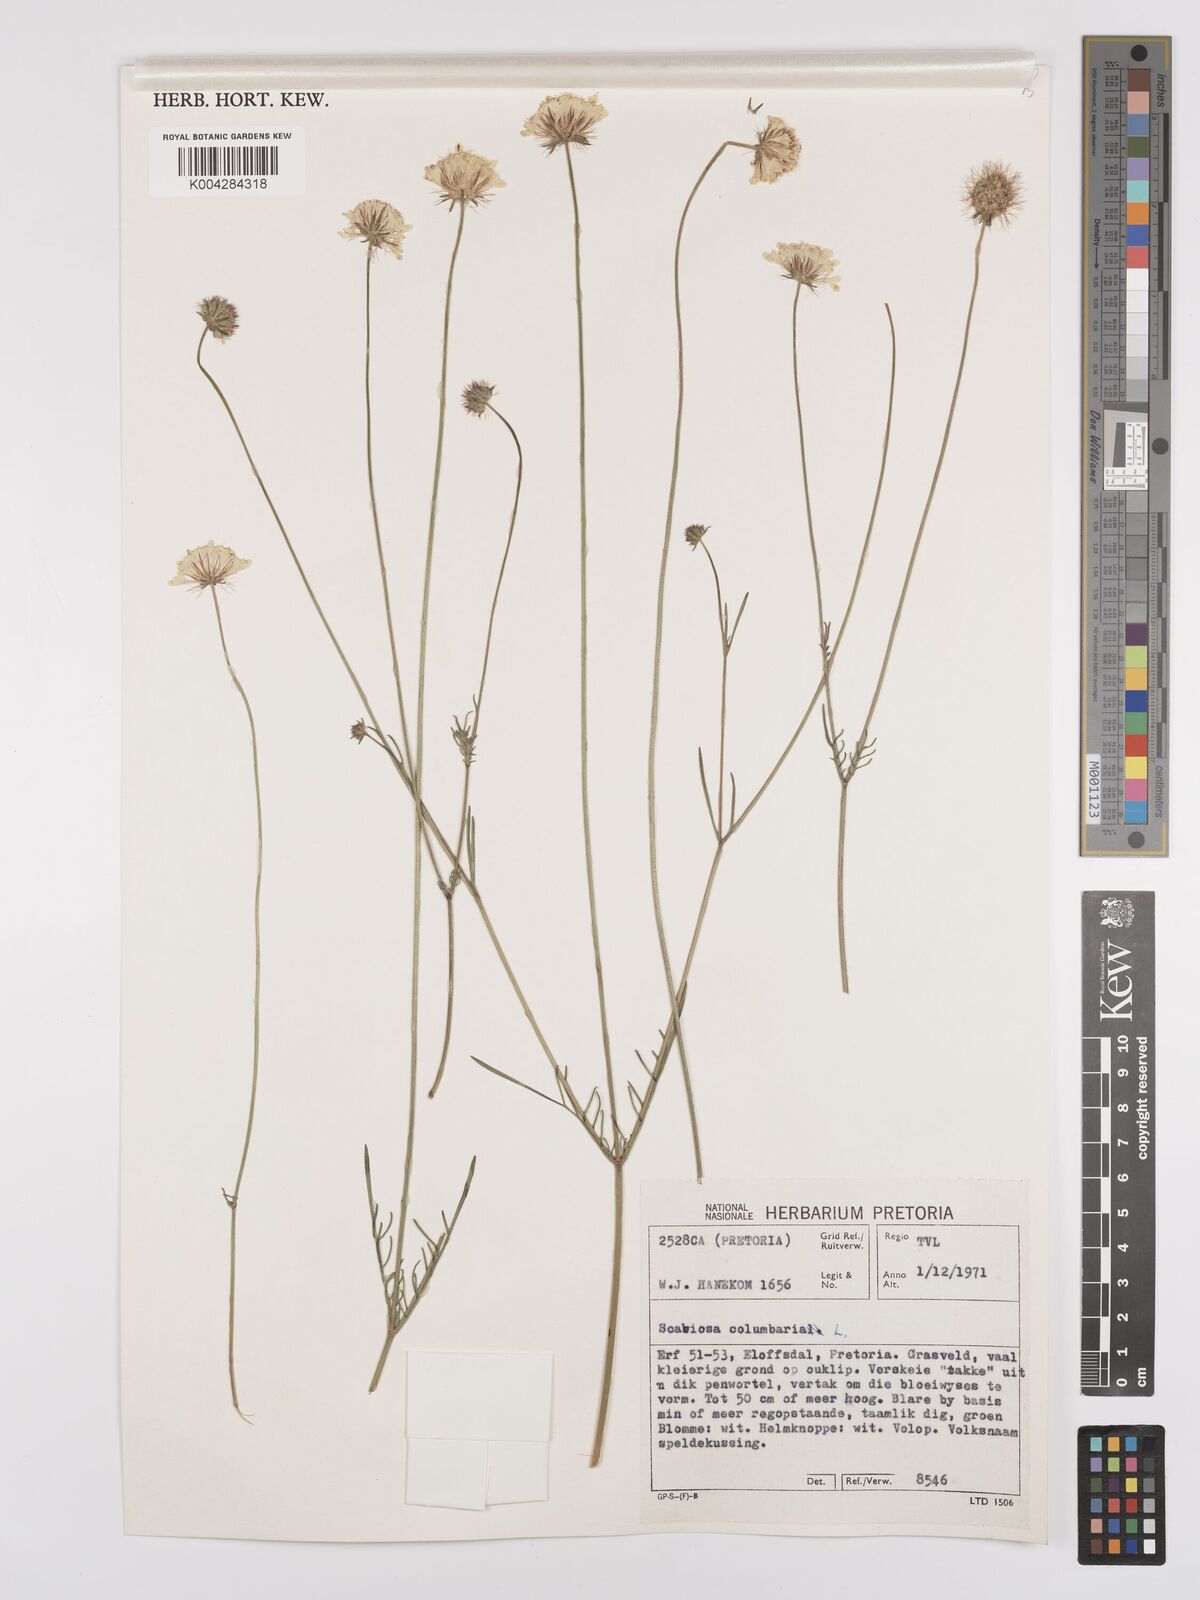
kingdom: Plantae
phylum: Tracheophyta
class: Magnoliopsida
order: Dipsacales
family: Caprifoliaceae
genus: Scabiosa
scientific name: Scabiosa austroafricana
